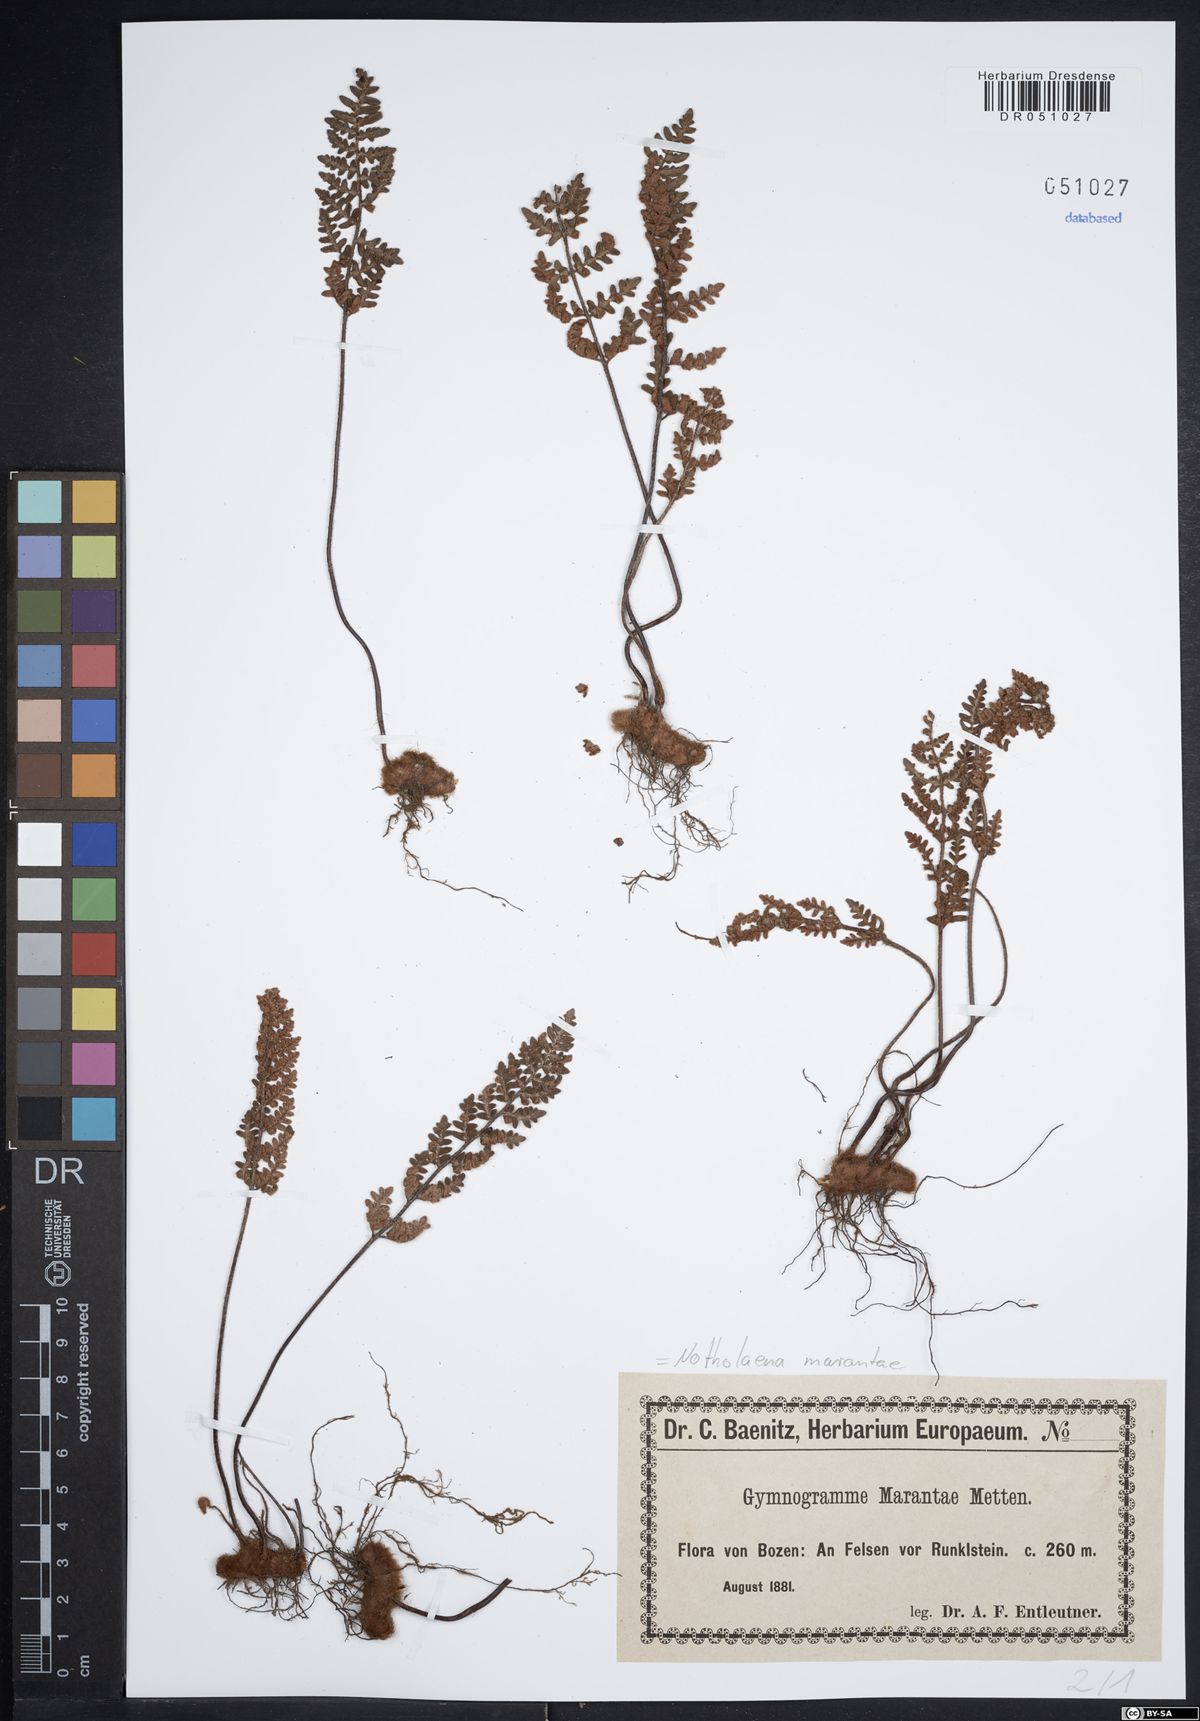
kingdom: Plantae
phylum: Tracheophyta
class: Polypodiopsida
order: Polypodiales
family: Pteridaceae
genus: Paragymnopteris
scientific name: Paragymnopteris marantae
